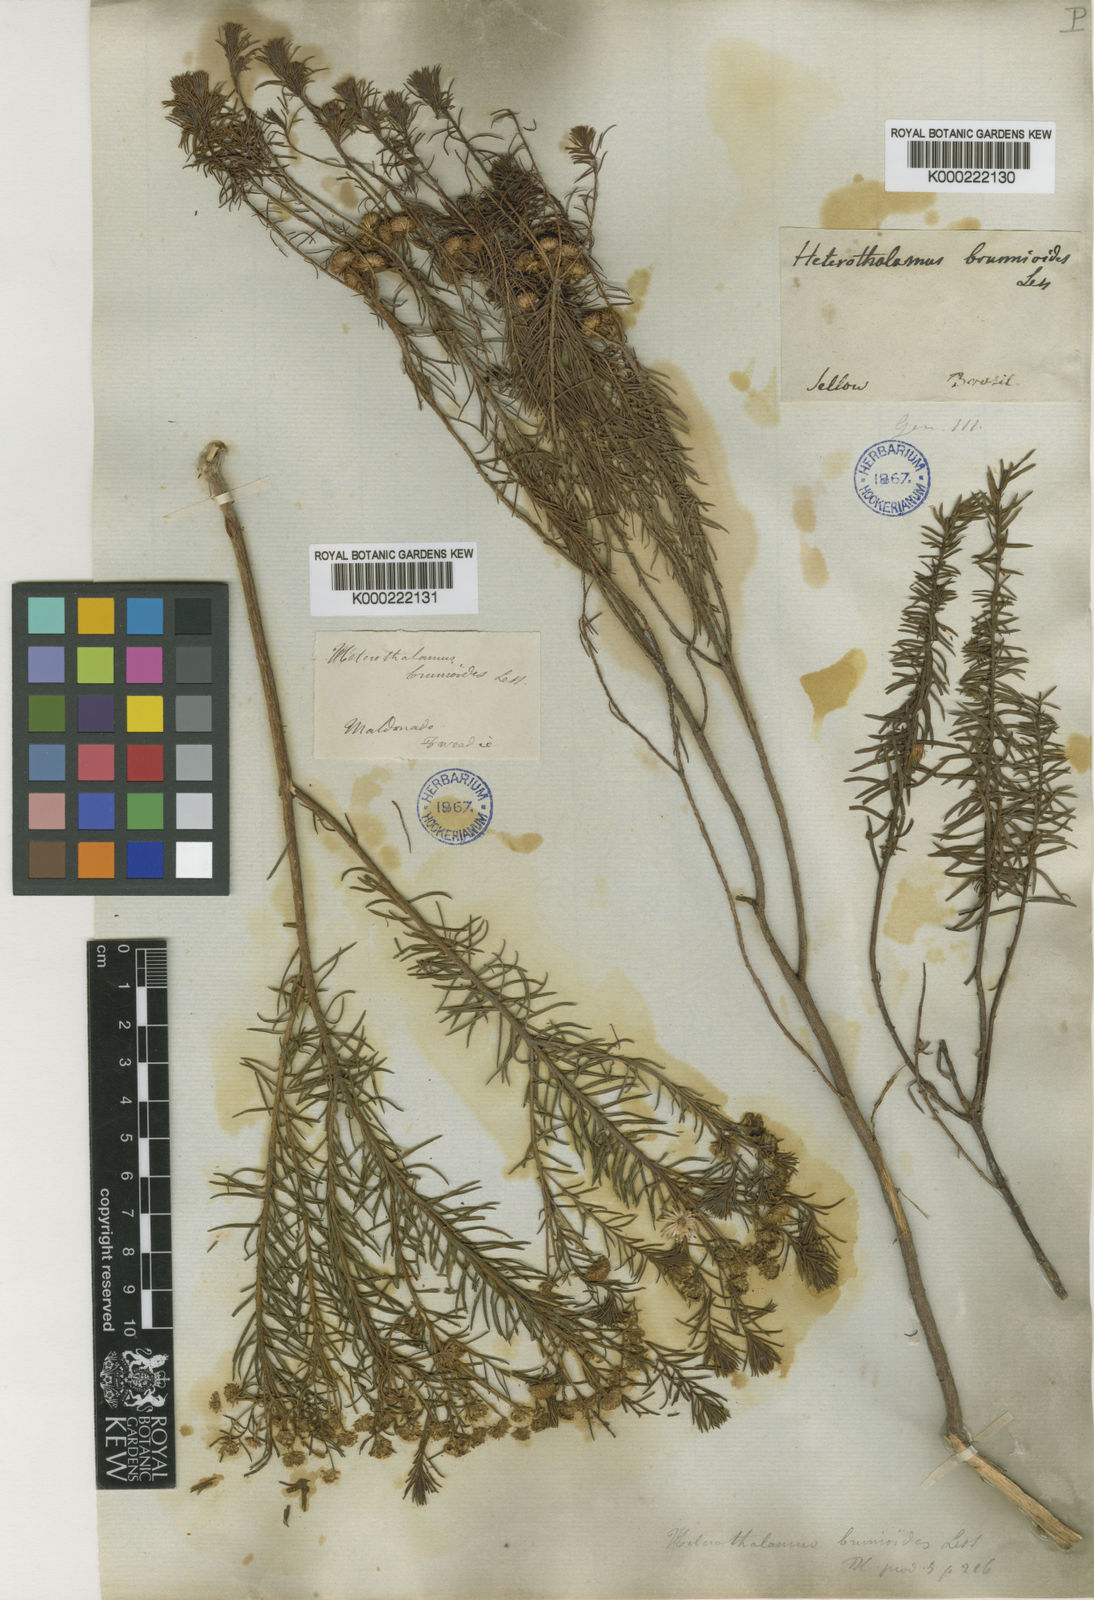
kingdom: Plantae
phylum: Tracheophyta
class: Magnoliopsida
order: Asterales
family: Asteraceae
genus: Baccharis
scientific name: Baccharis aliena
